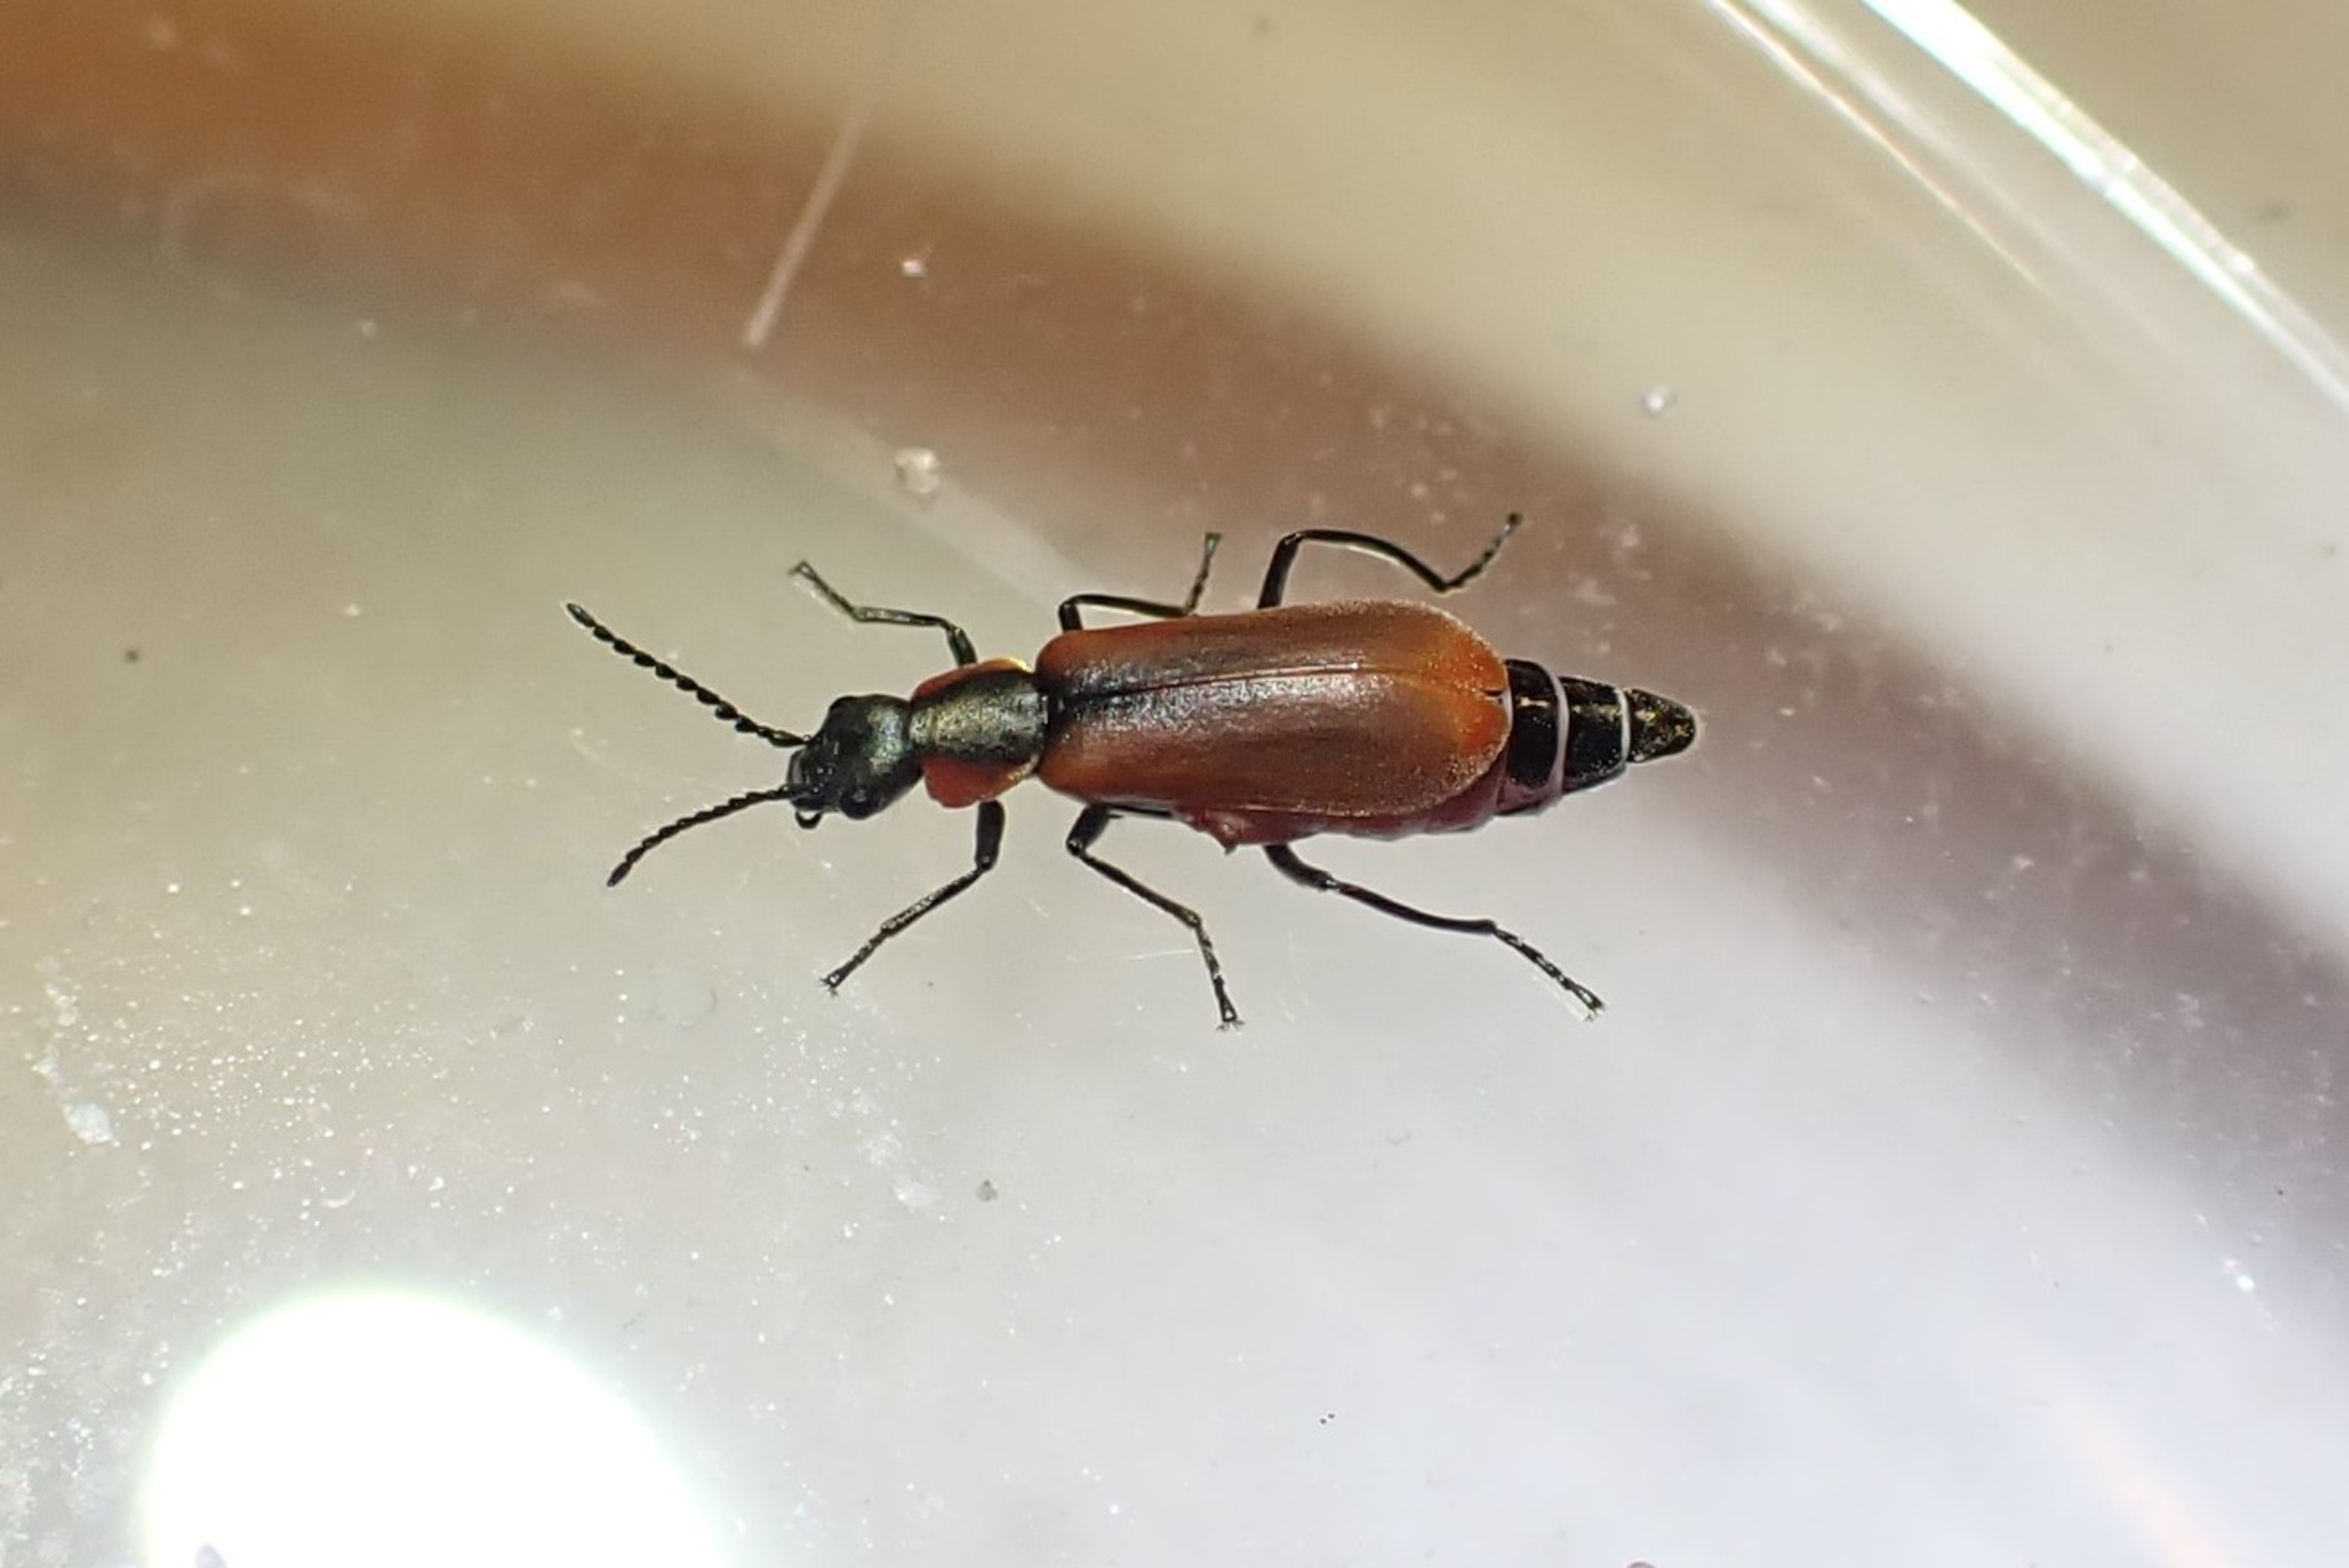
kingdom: Animalia
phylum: Arthropoda
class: Insecta
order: Coleoptera
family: Melyridae
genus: Anthocomus
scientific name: Anthocomus rufus
